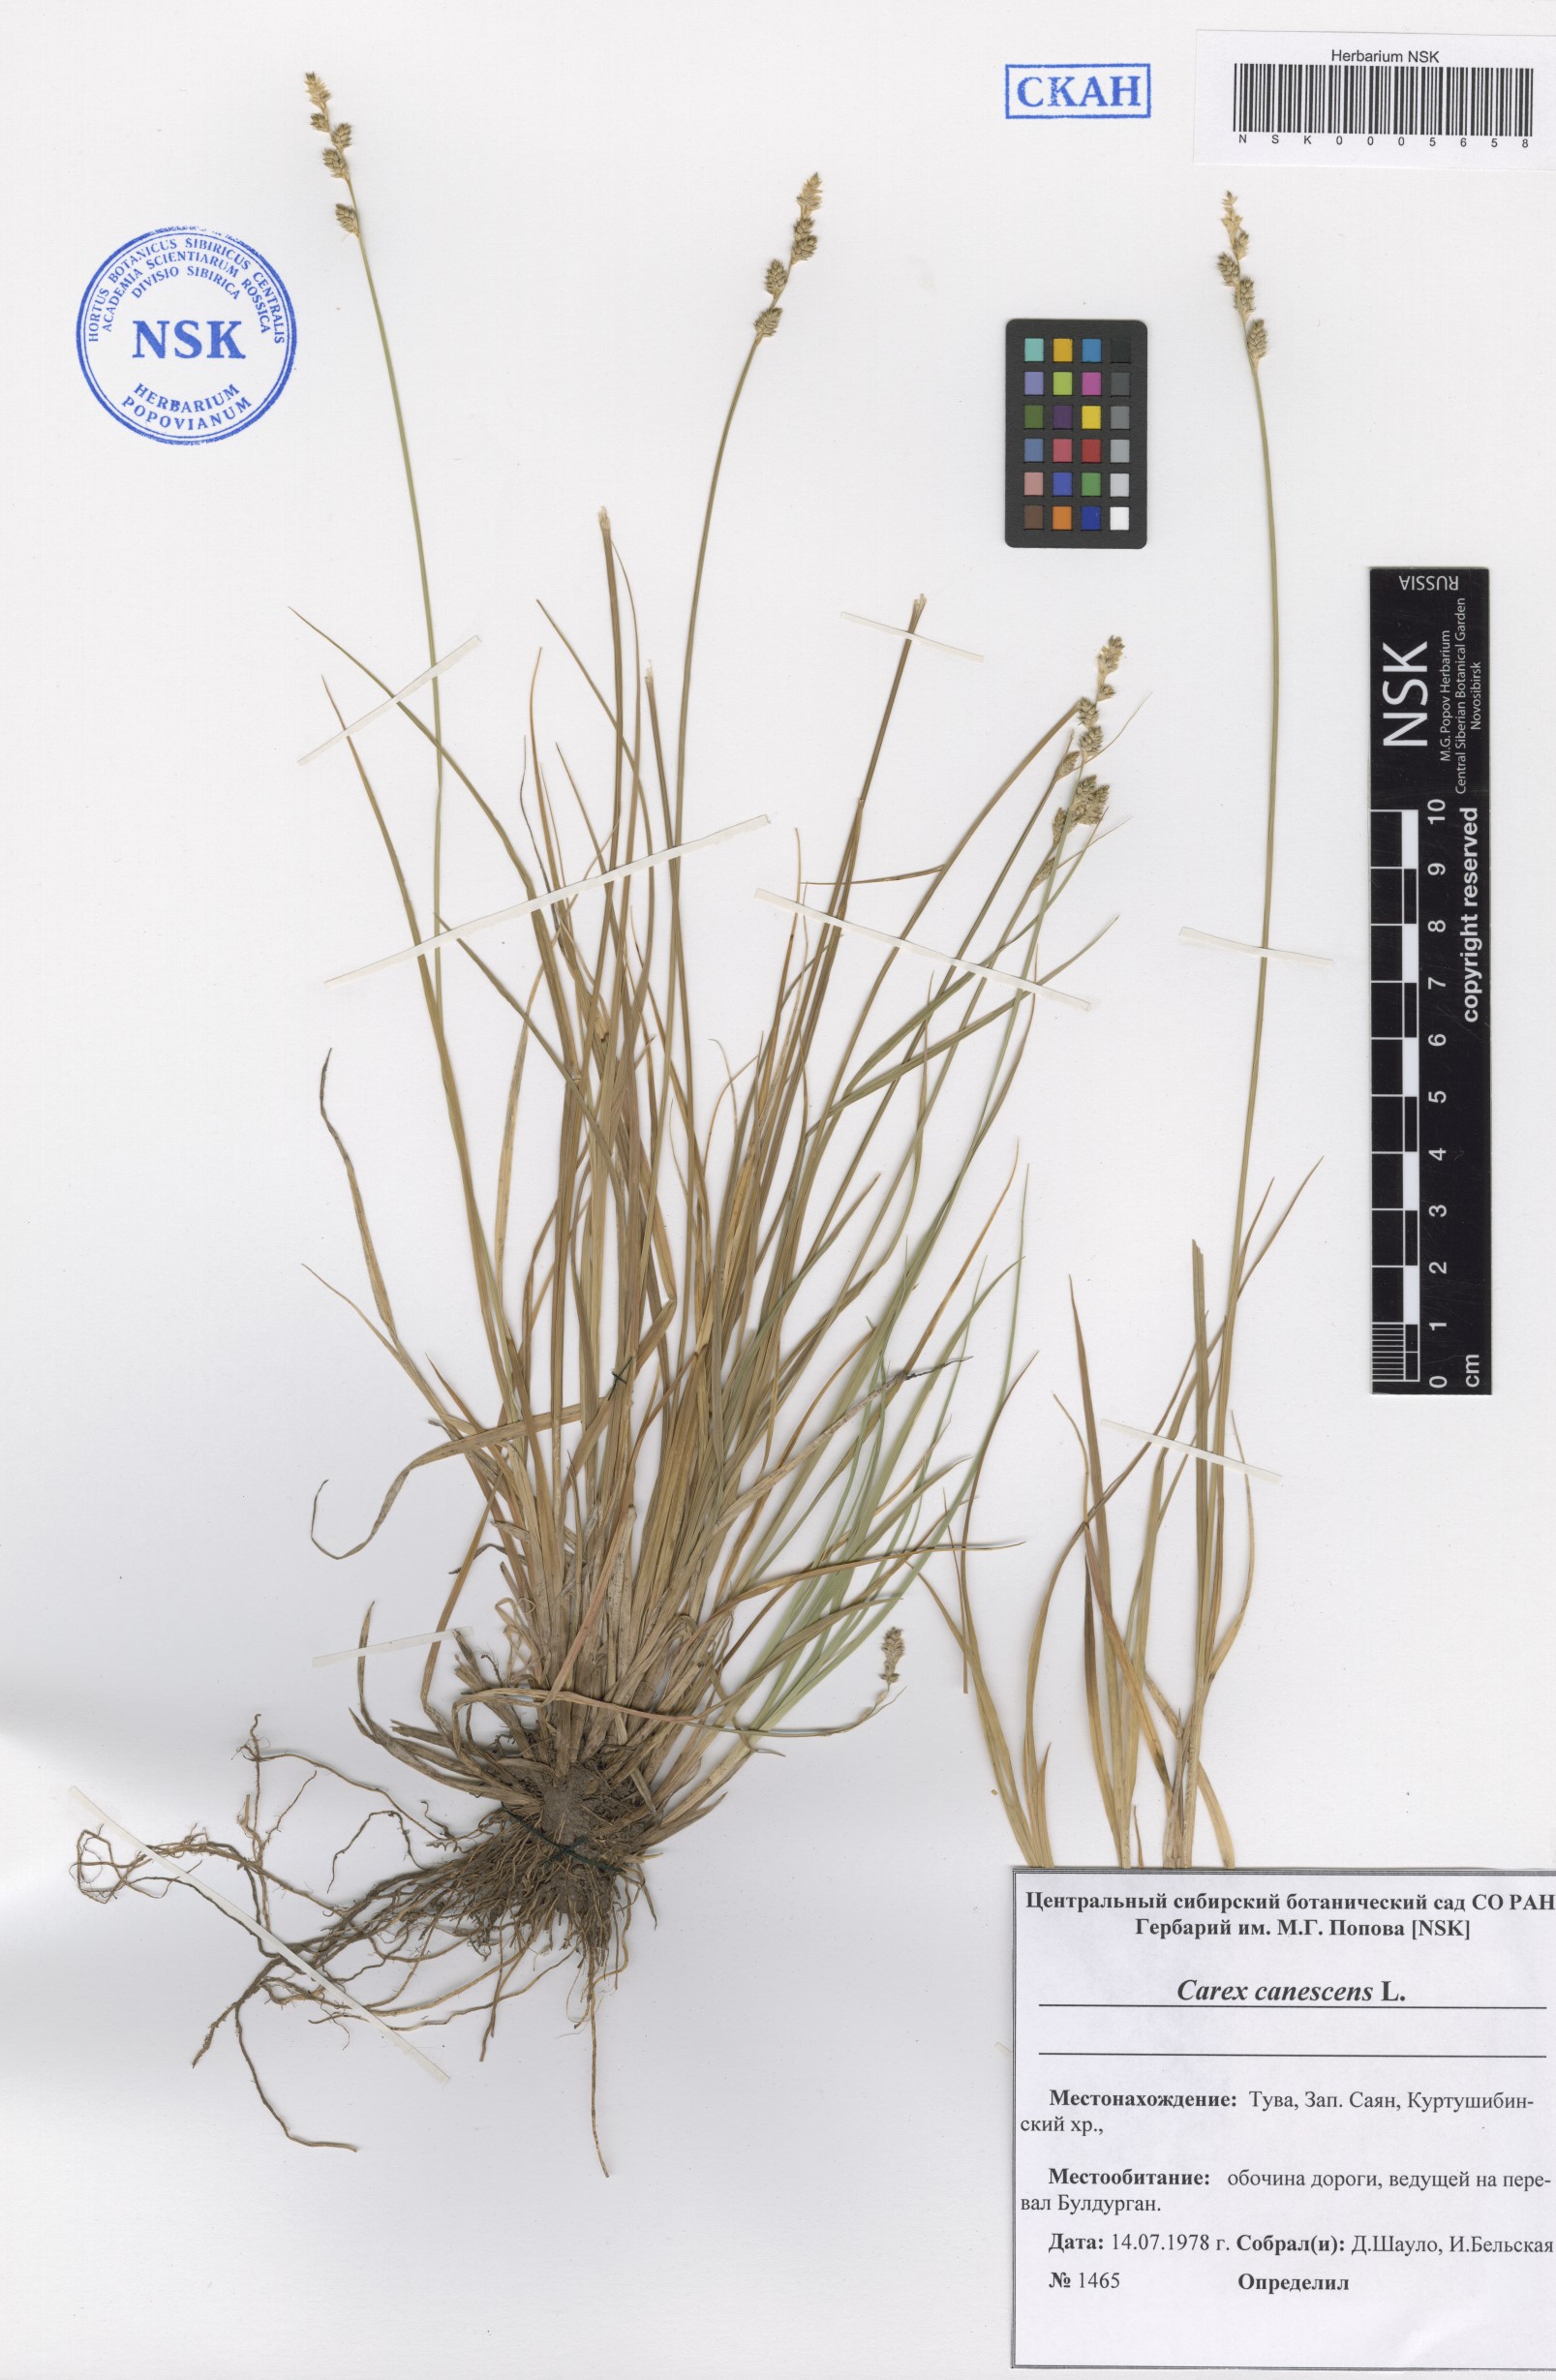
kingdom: Plantae
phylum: Tracheophyta
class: Liliopsida
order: Poales
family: Cyperaceae
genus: Carex
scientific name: Carex canescens
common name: White sedge
